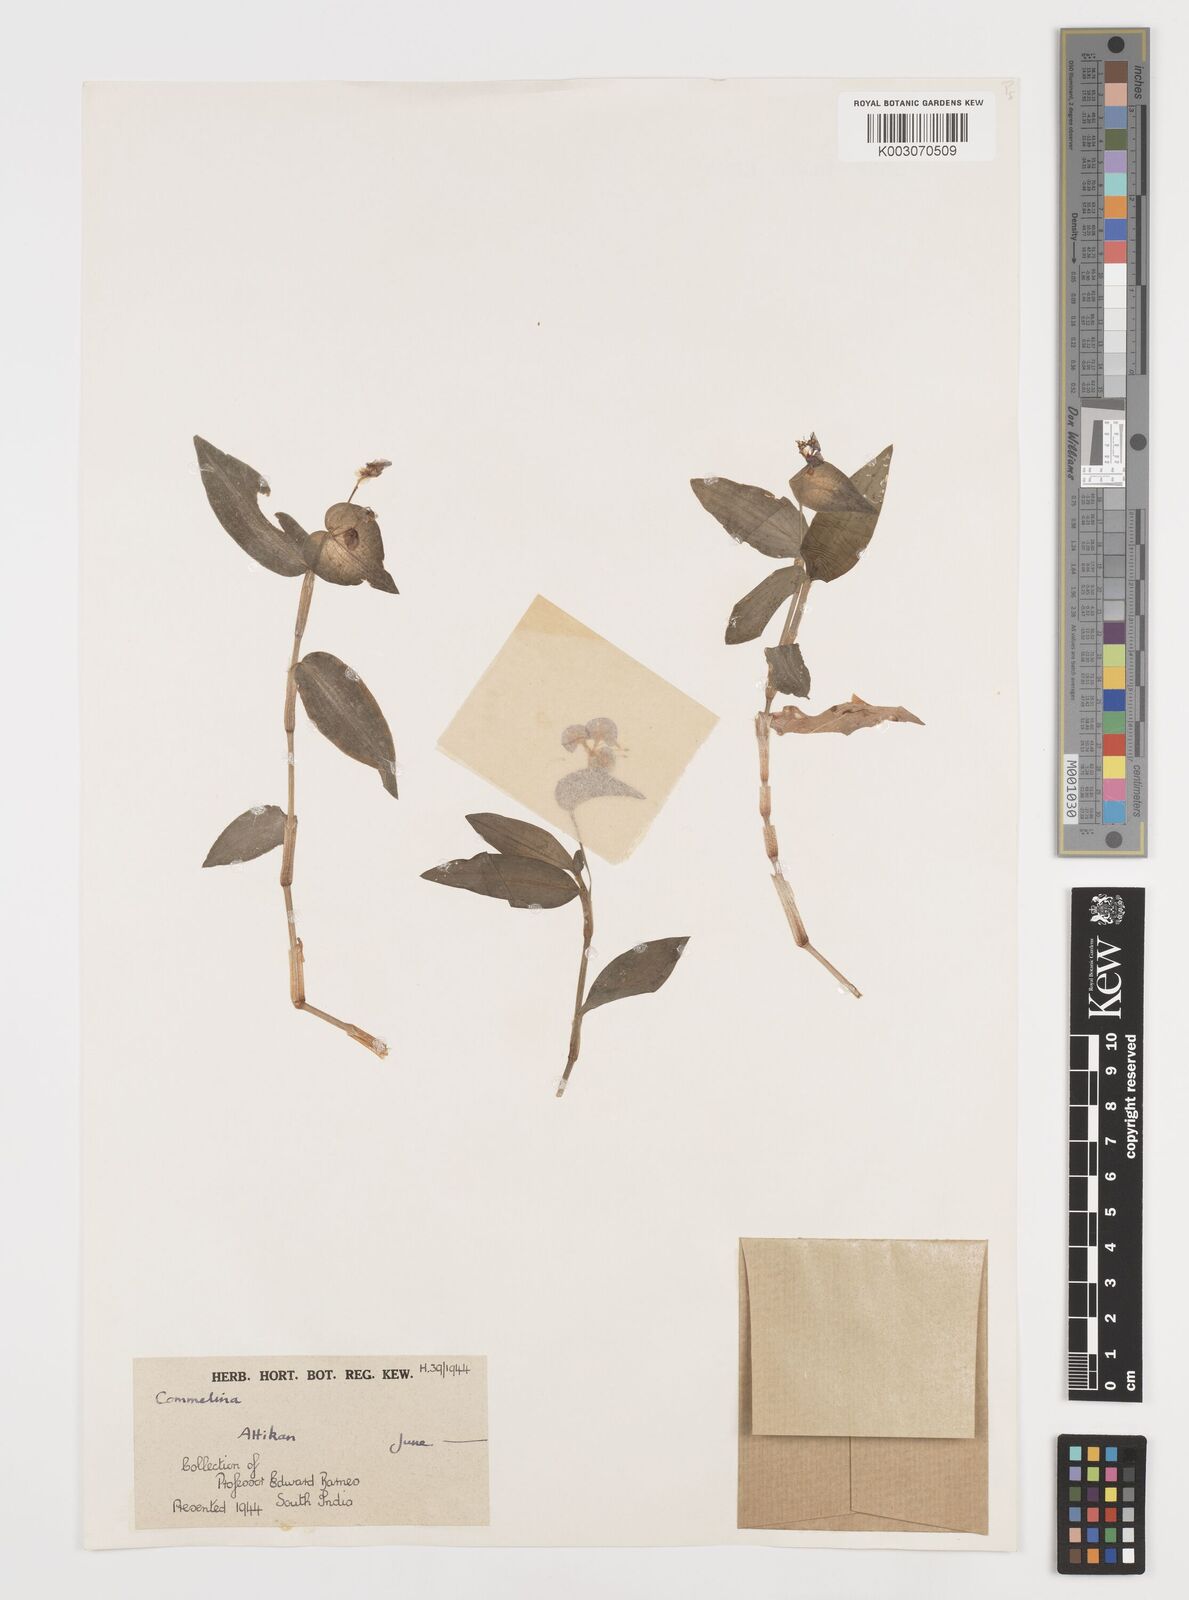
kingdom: Plantae
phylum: Tracheophyta
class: Liliopsida
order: Commelinales
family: Commelinaceae
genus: Commelina
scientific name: Commelina
